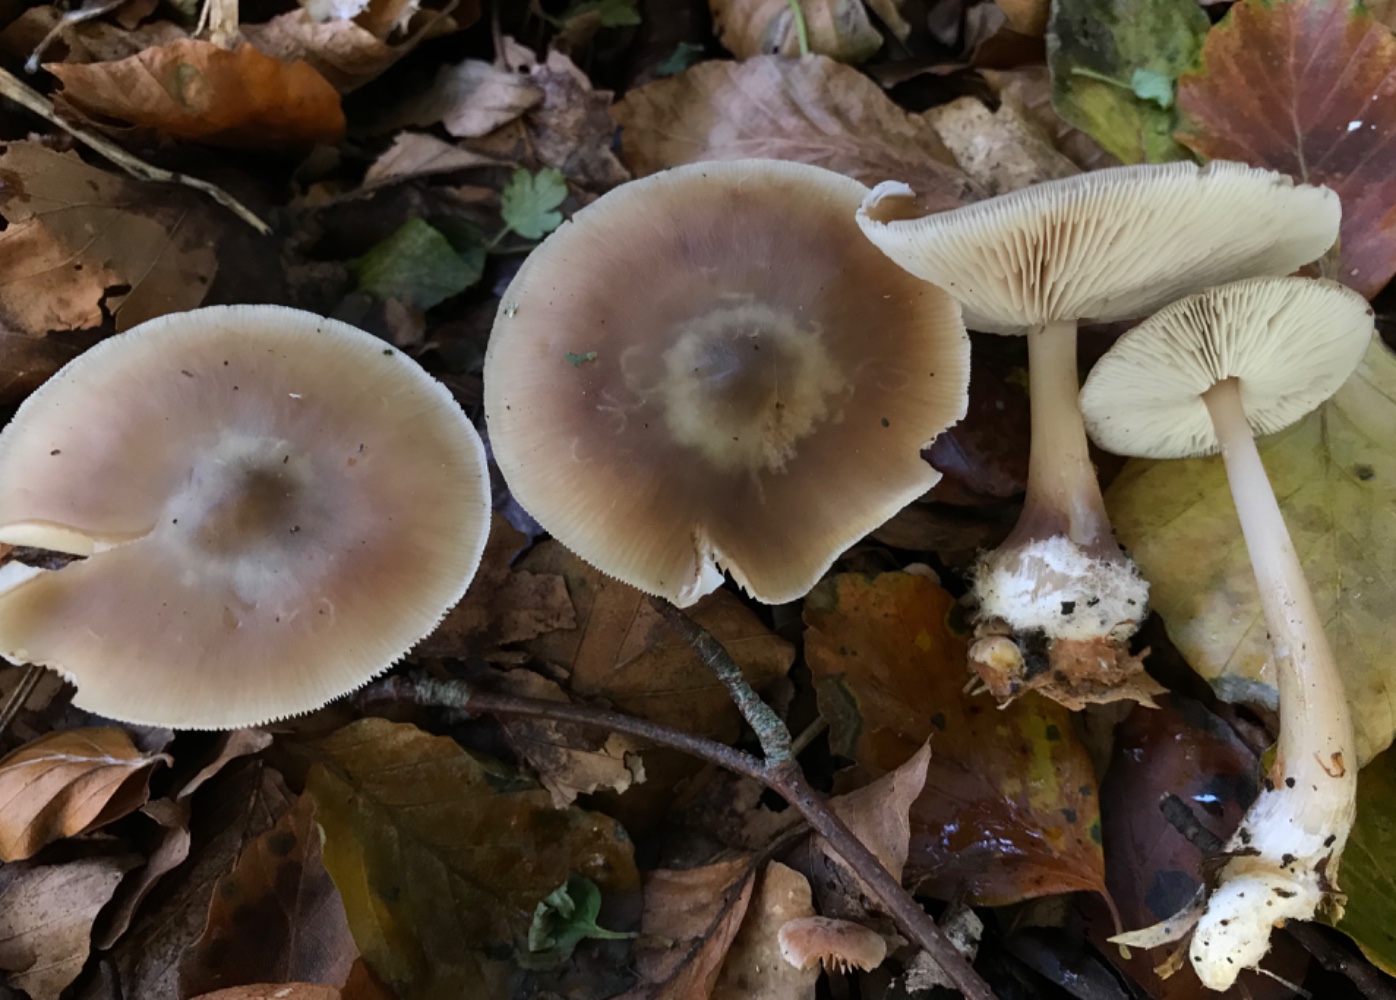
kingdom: Fungi
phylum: Basidiomycota
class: Agaricomycetes
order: Agaricales
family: Omphalotaceae
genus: Rhodocollybia
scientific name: Rhodocollybia asema
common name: horngrå fladhat
